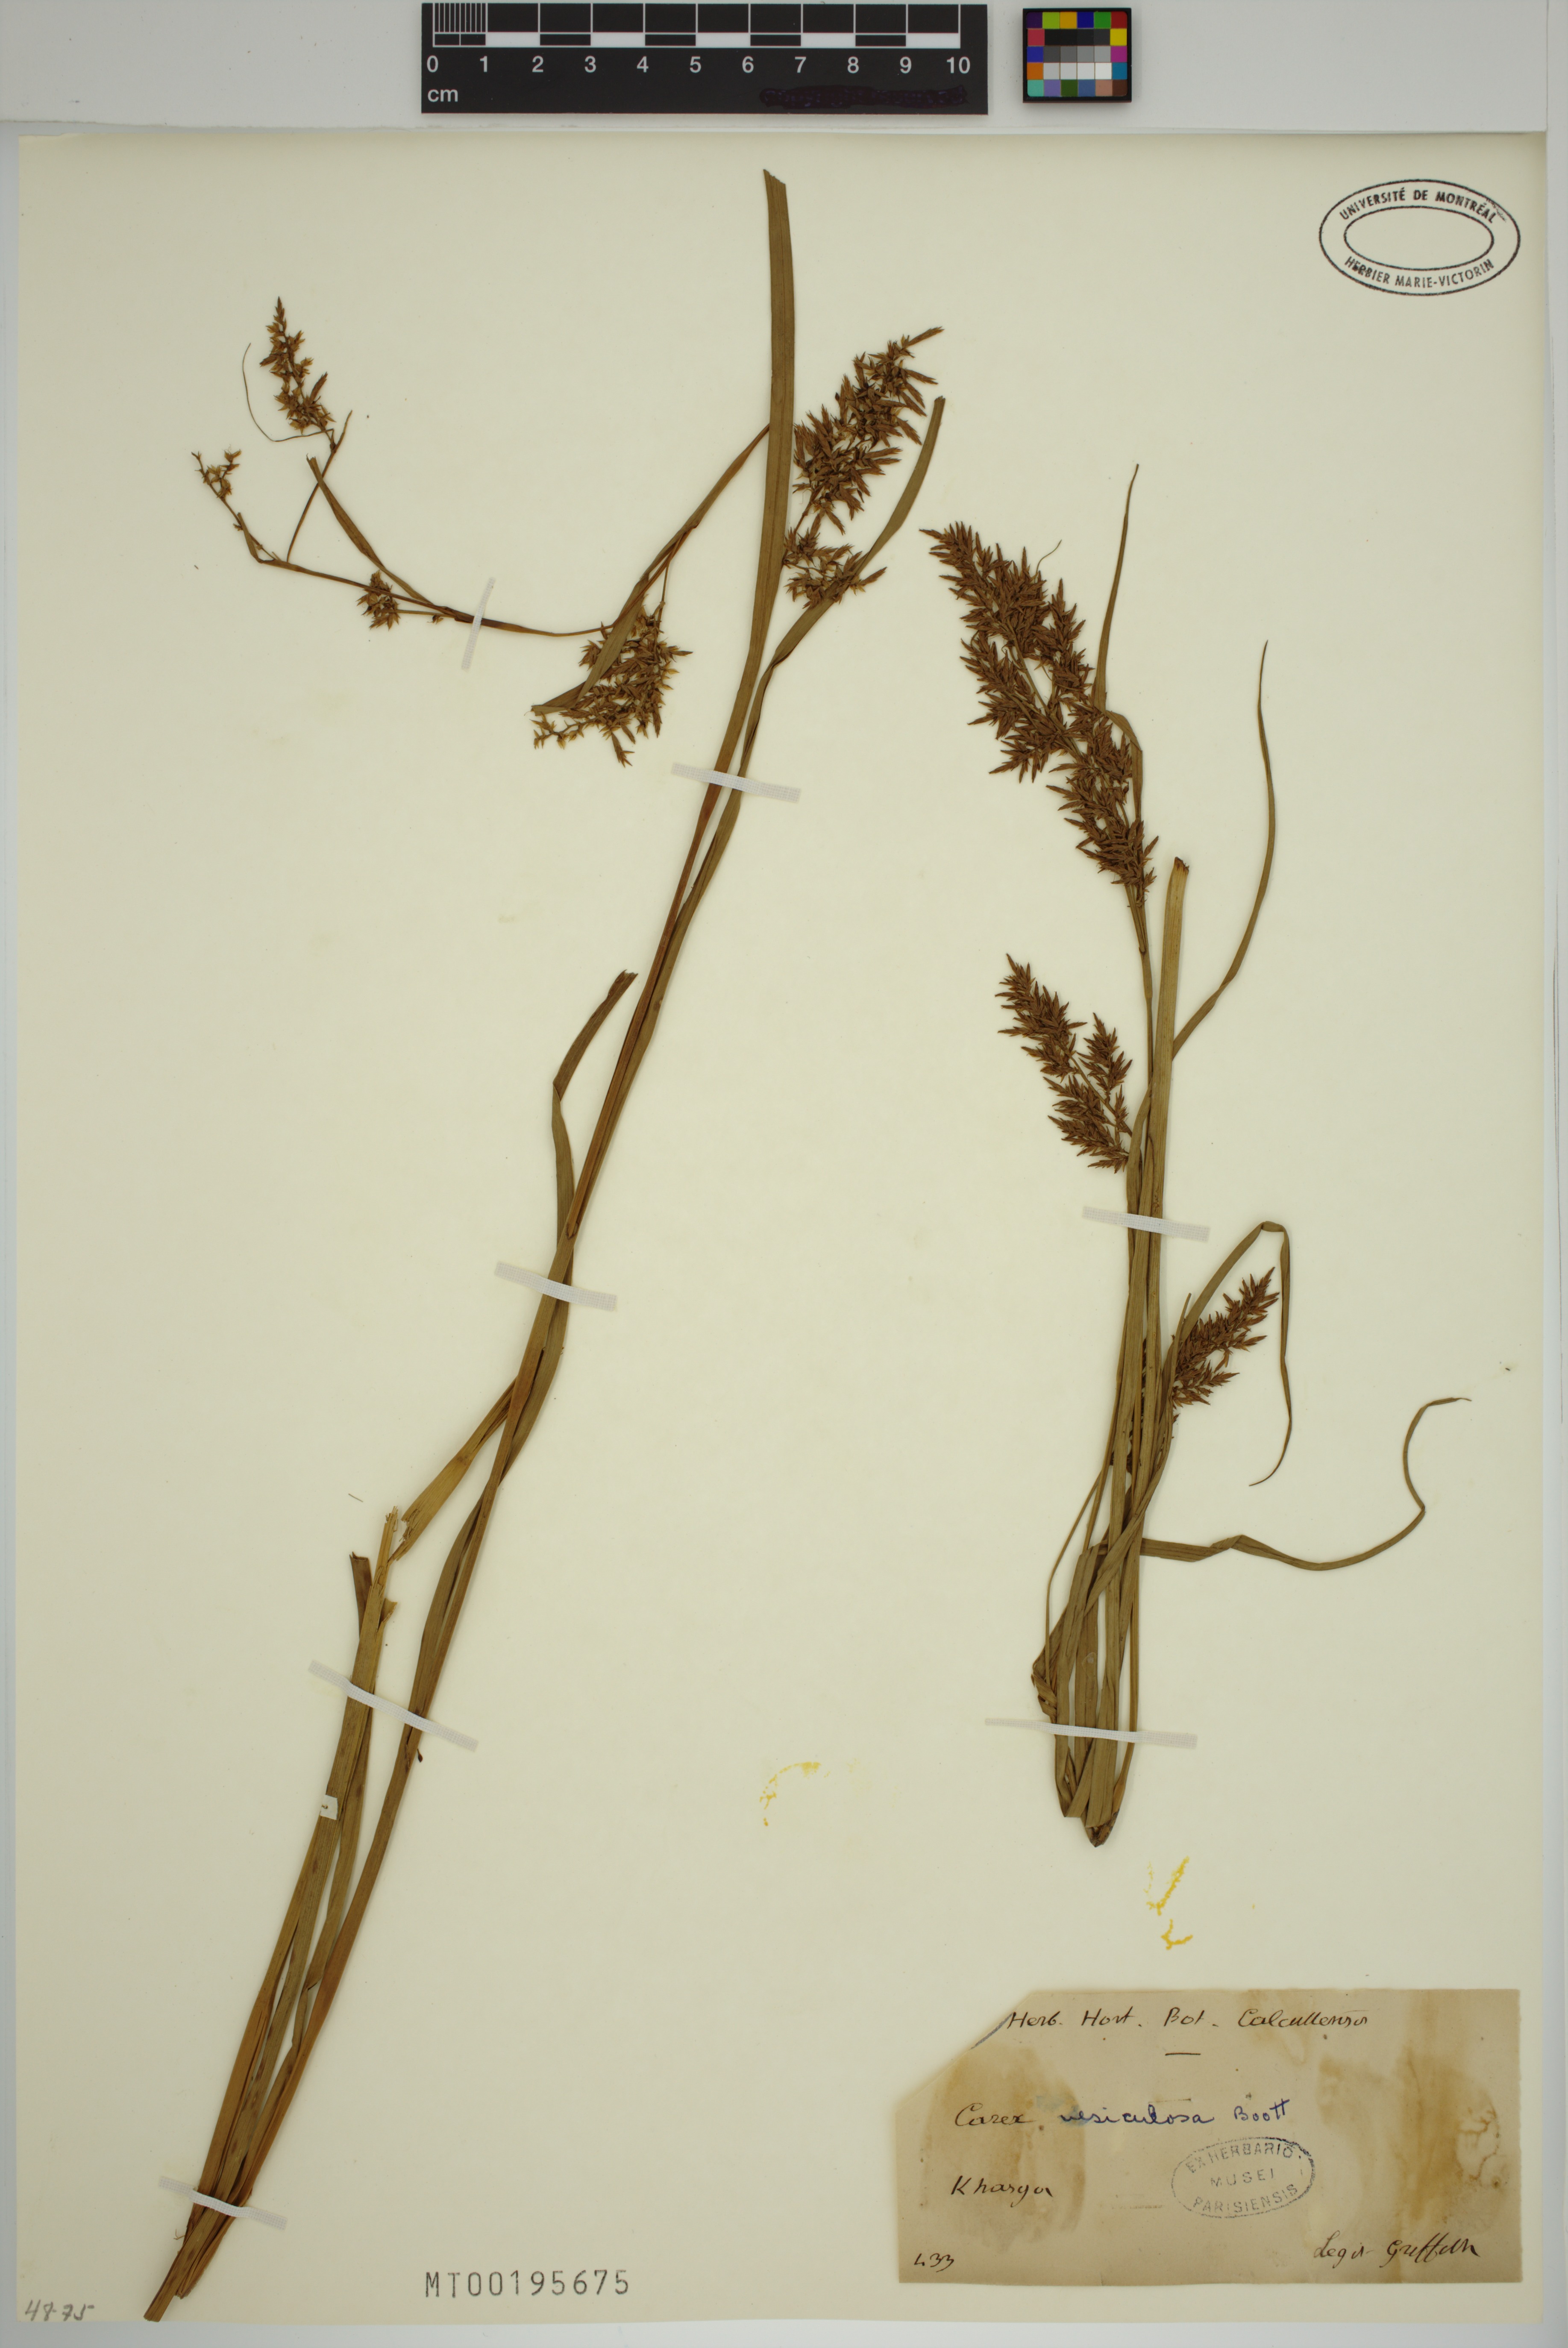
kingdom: Plantae
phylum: Tracheophyta
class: Liliopsida
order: Poales
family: Cyperaceae
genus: Carex
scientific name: Carex vesiculosa
